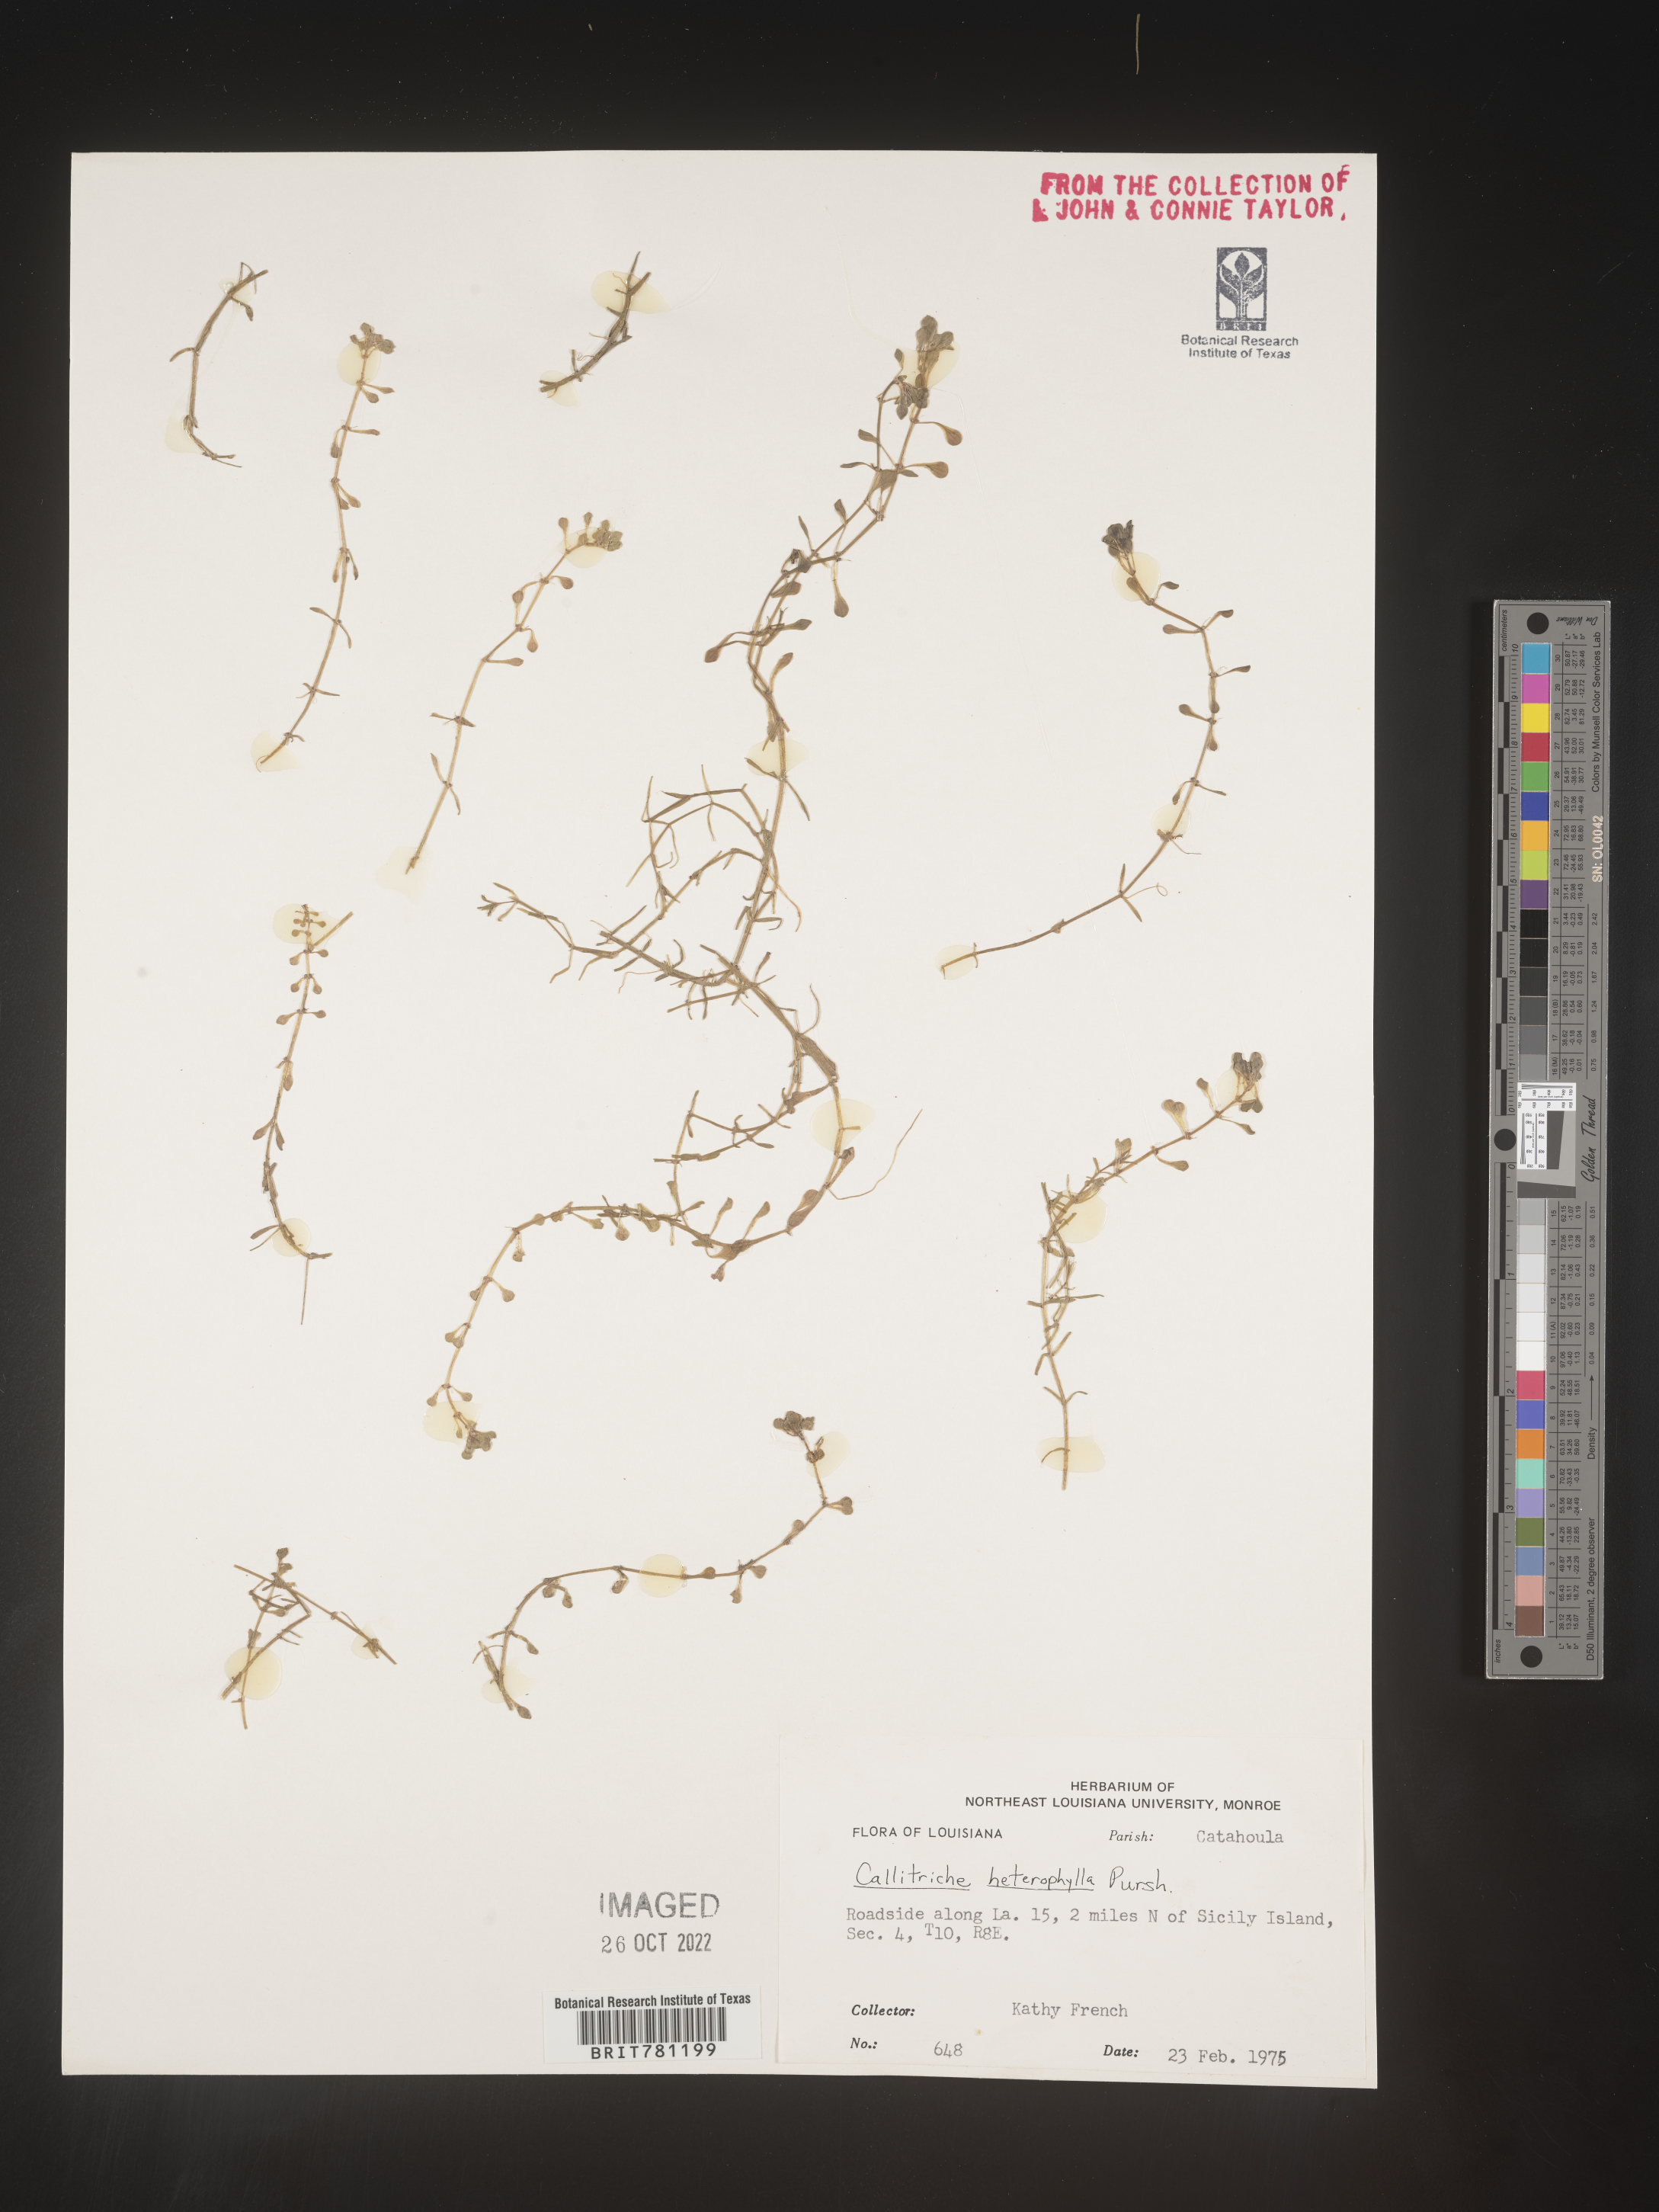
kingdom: Plantae
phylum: Tracheophyta
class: Magnoliopsida
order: Lamiales
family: Plantaginaceae
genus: Callitriche
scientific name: Callitriche heterophylla
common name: Two-headed water-starwort
